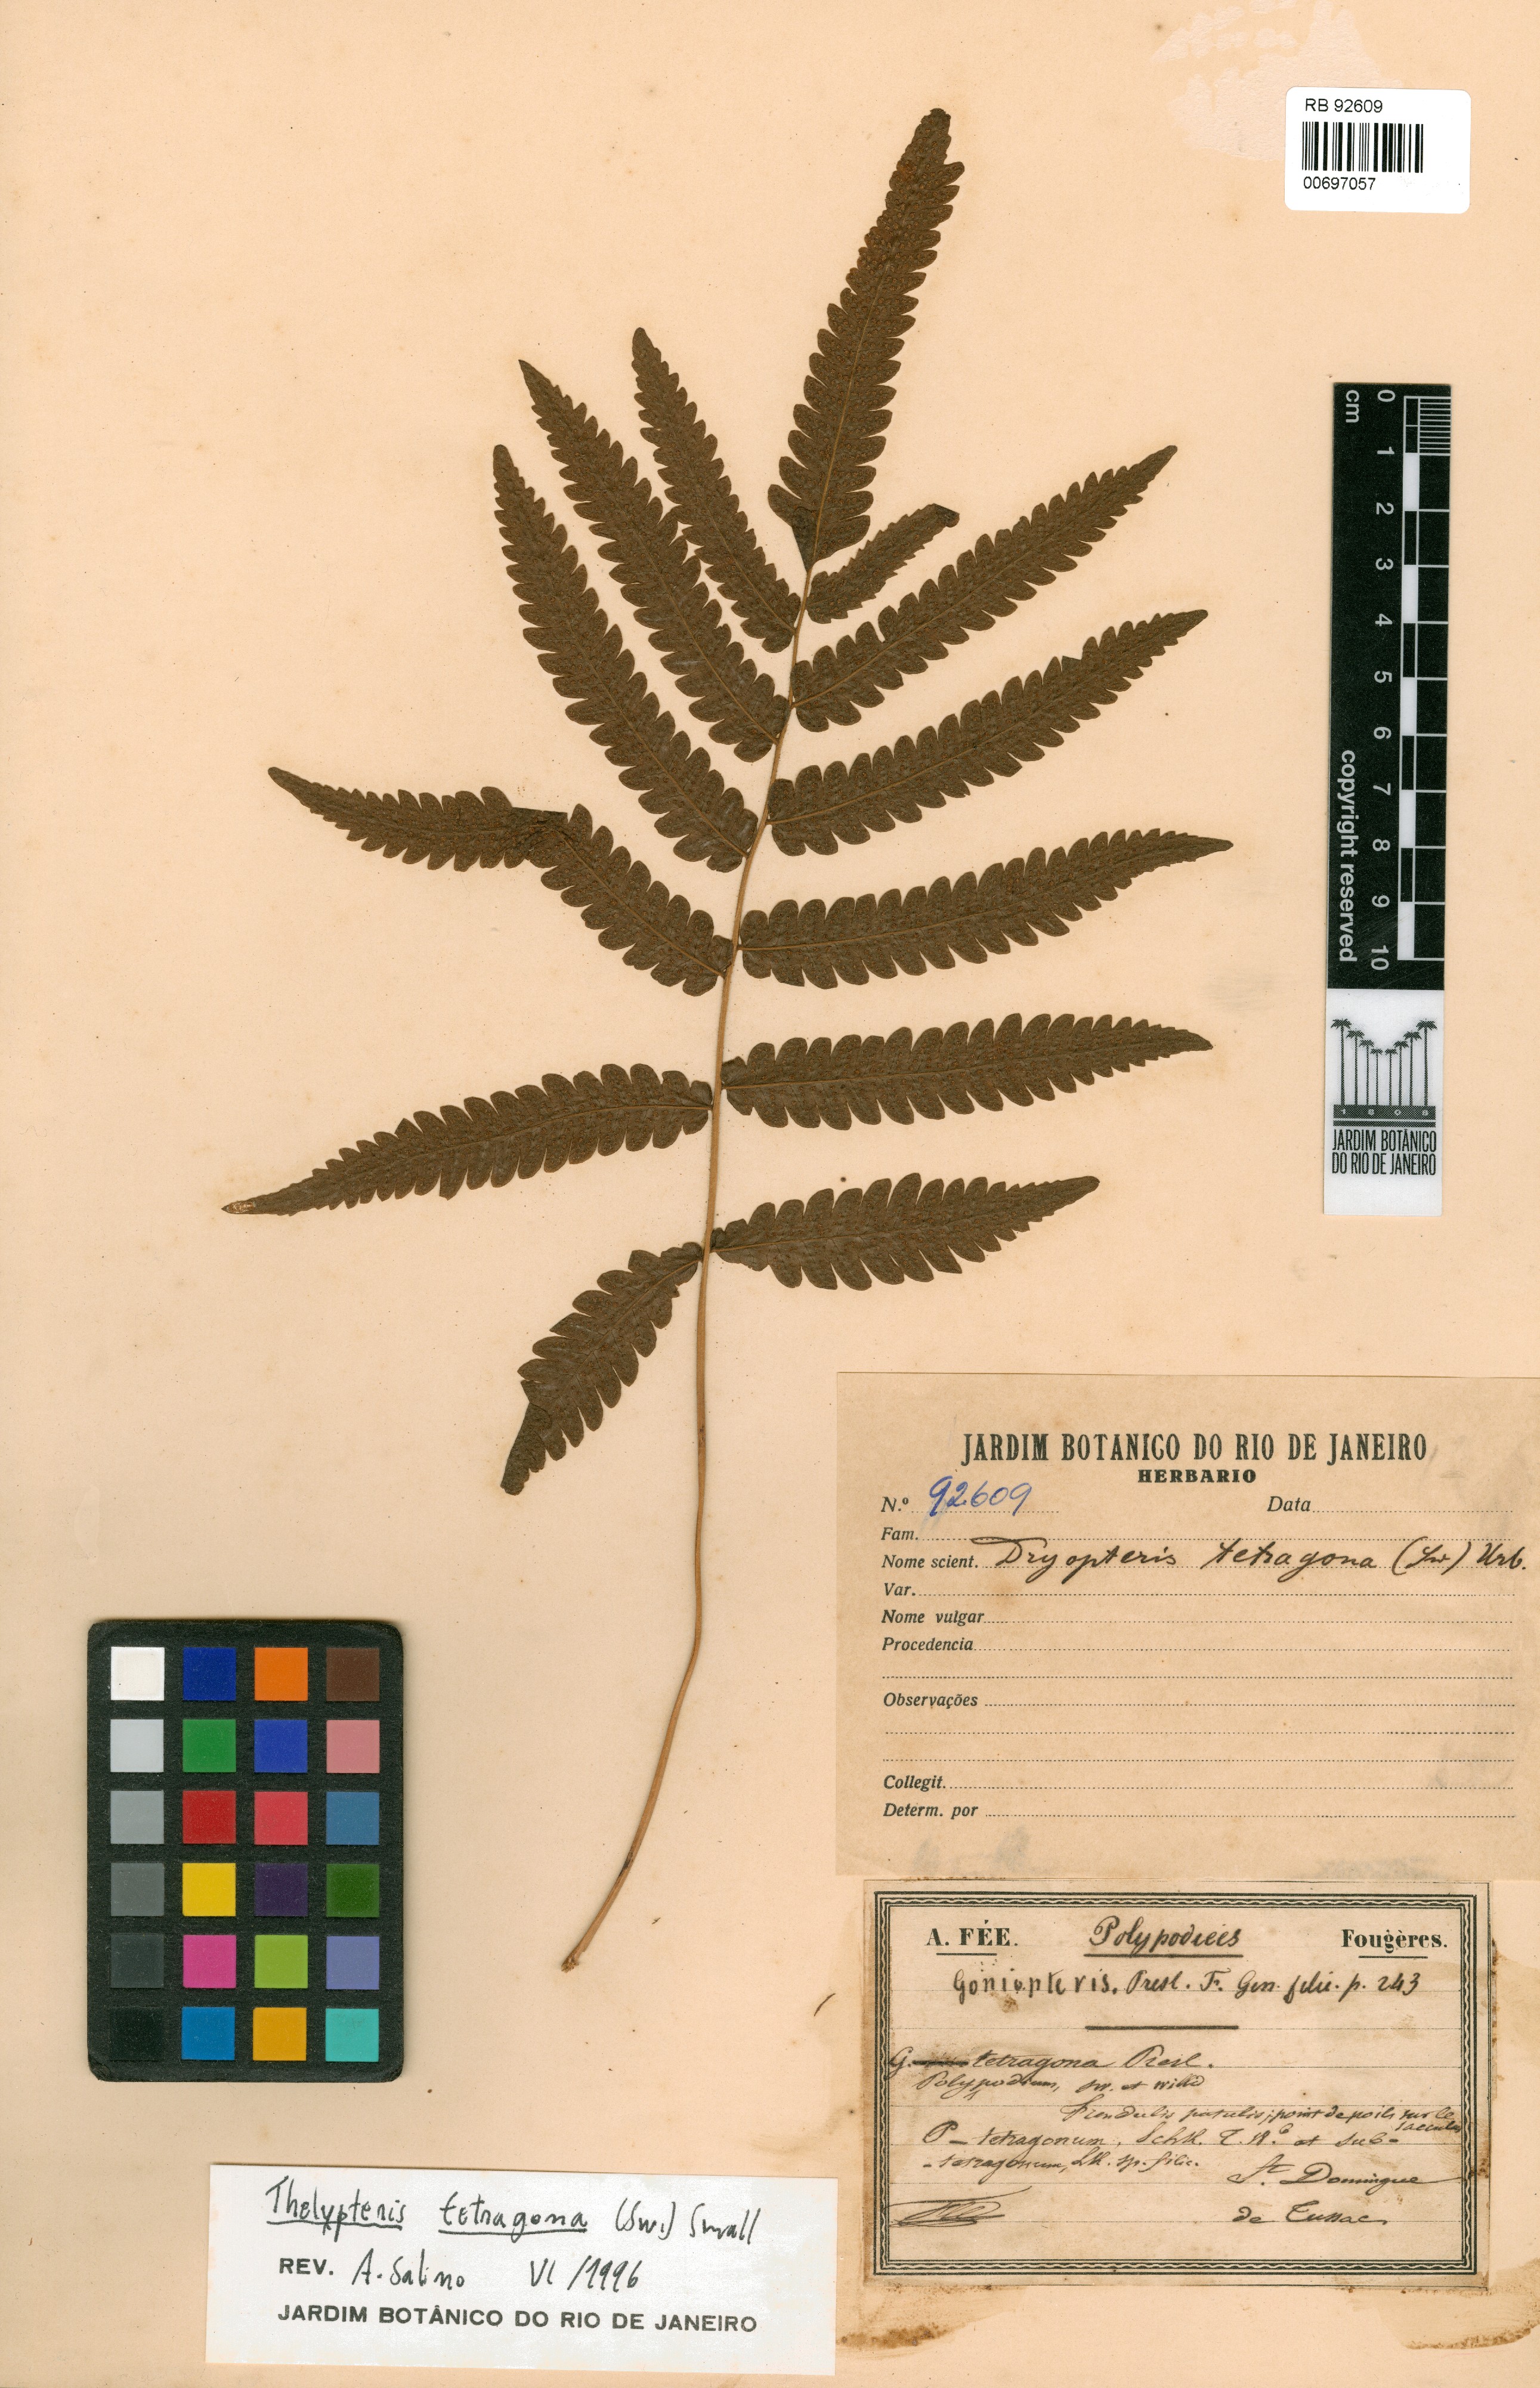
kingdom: Plantae
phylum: Tracheophyta
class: Polypodiopsida
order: Polypodiales
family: Thelypteridaceae
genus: Goniopteris
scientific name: Goniopteris tetragona
